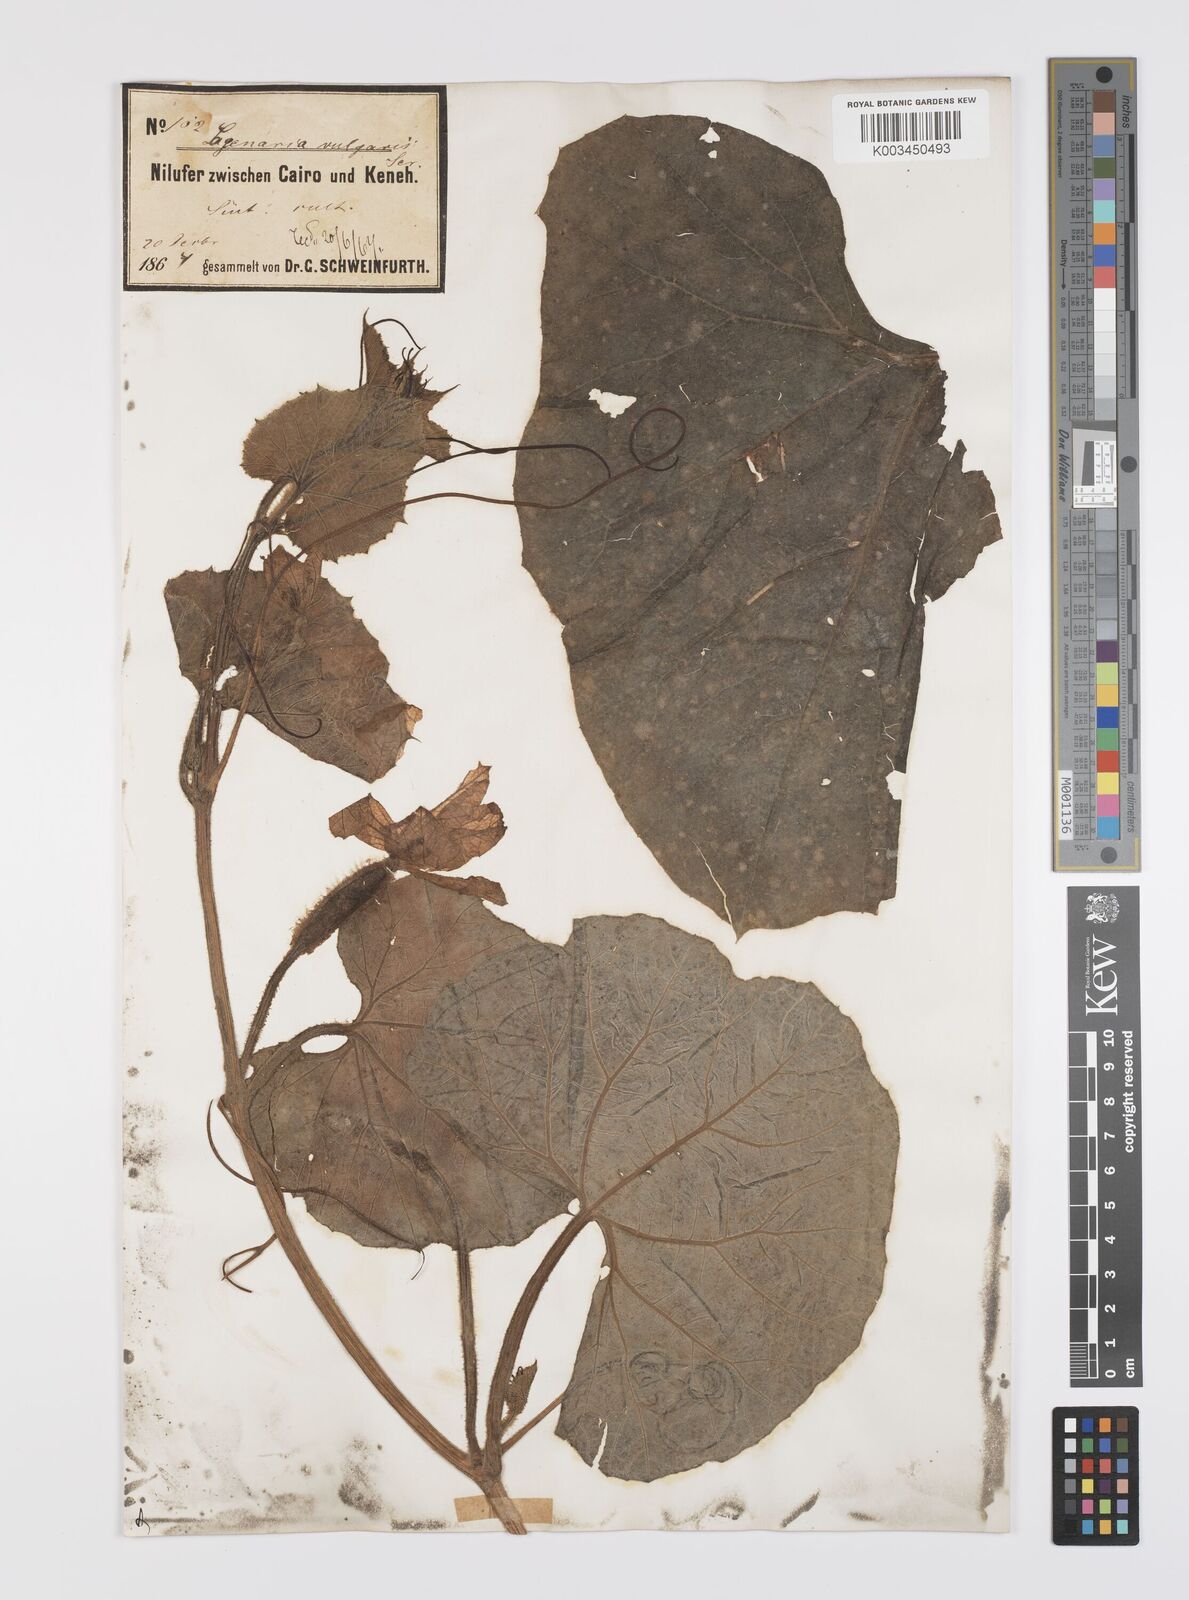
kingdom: Plantae
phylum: Tracheophyta
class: Magnoliopsida
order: Cucurbitales
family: Cucurbitaceae
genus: Lagenaria
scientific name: Lagenaria siceraria
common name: Bottle gourd
